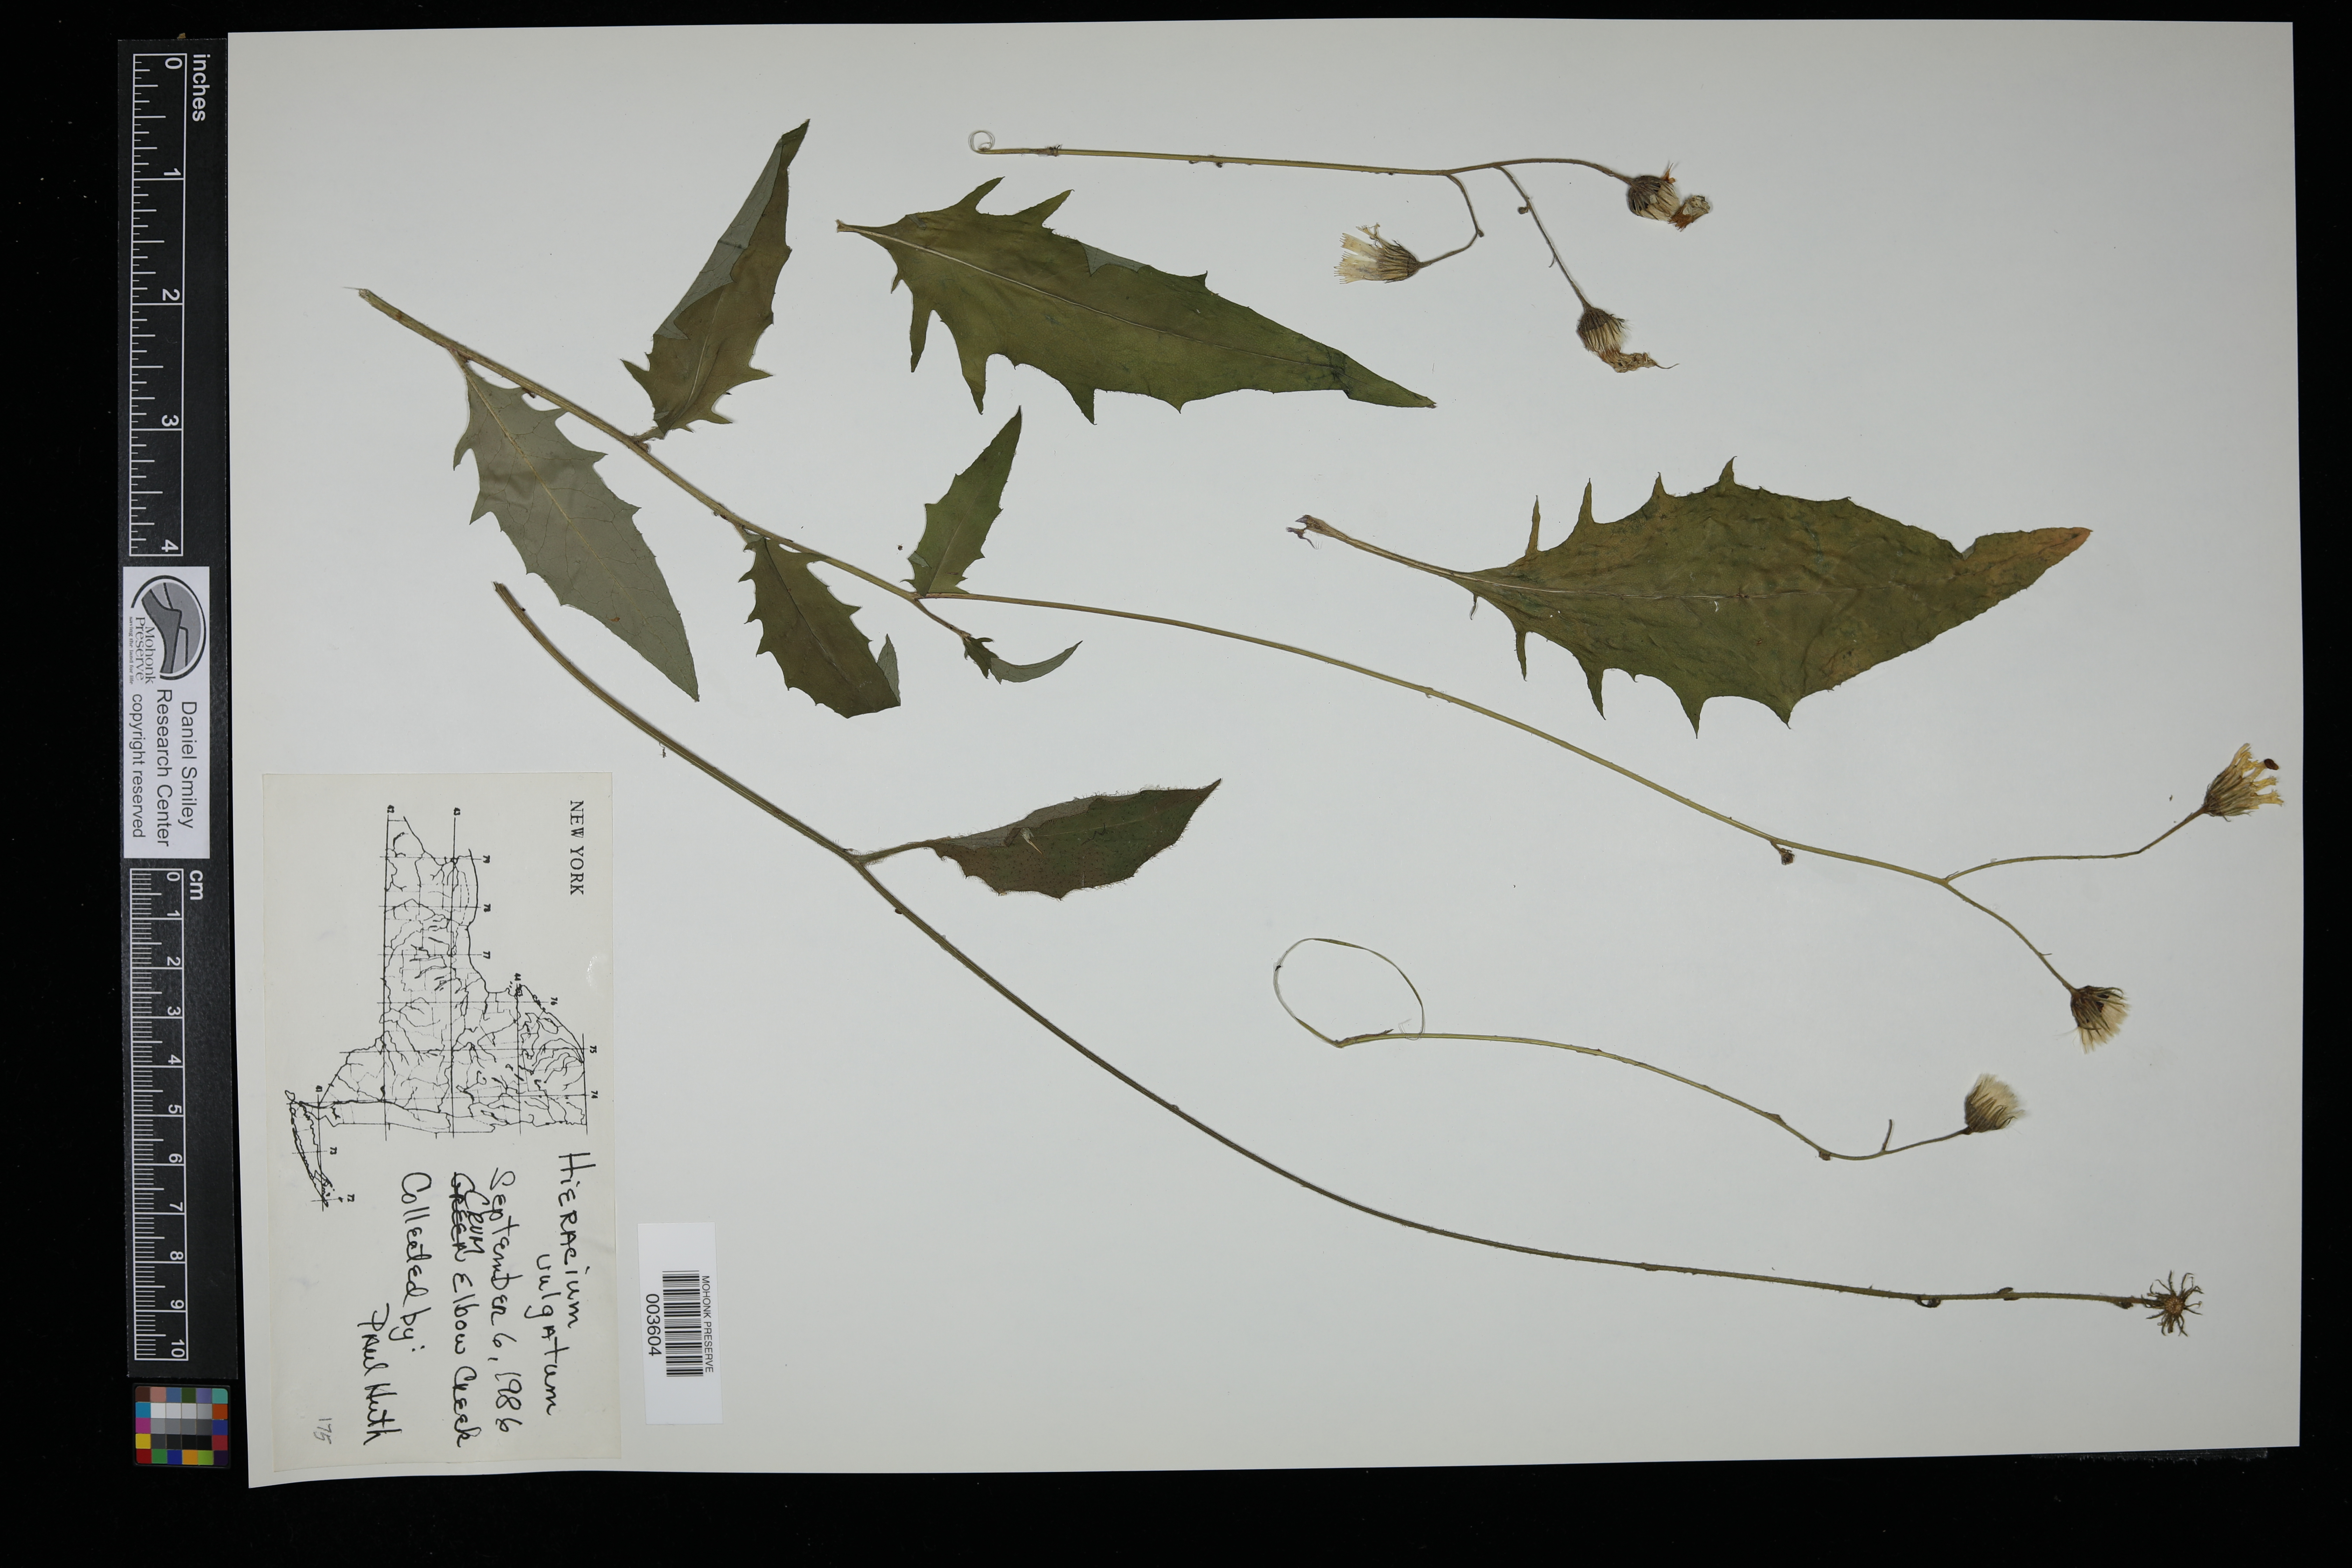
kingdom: Plantae
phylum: Tracheophyta
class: Magnoliopsida
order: Asterales
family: Asteraceae
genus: Hieracium
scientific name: Hieracium lachenalii
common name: Common hawkweed
